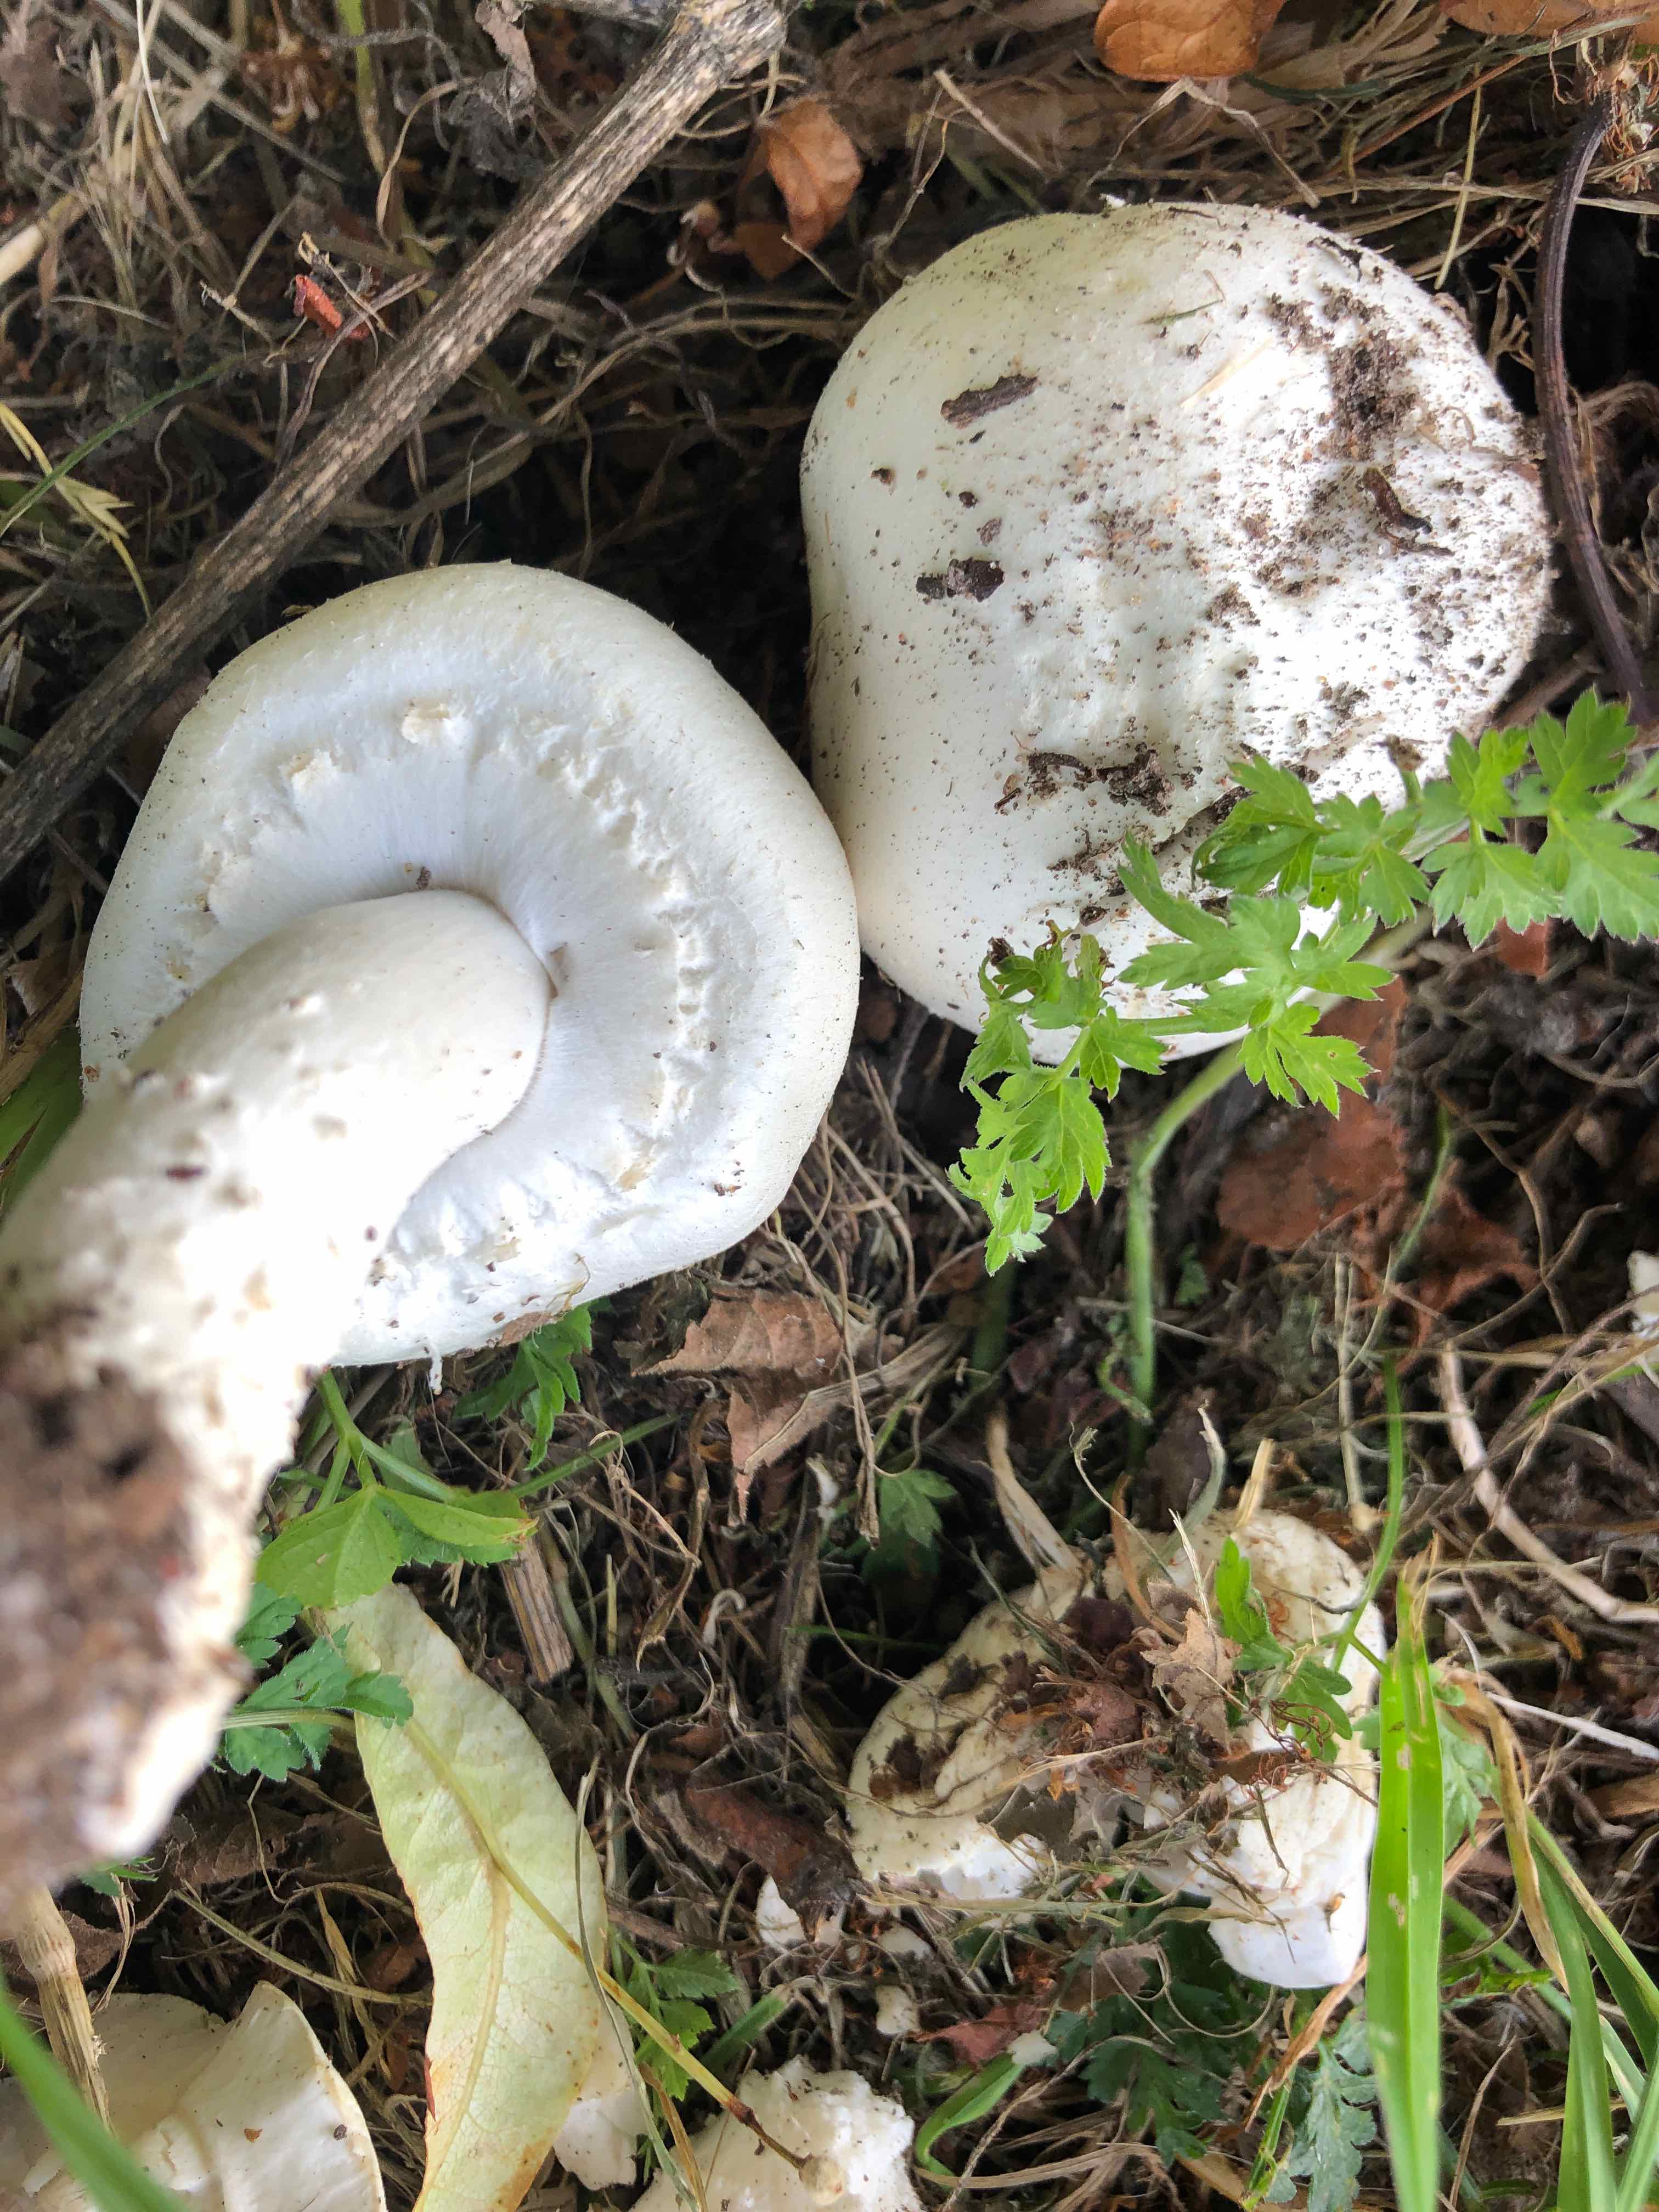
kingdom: Fungi
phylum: Basidiomycota
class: Agaricomycetes
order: Agaricales
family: Agaricaceae
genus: Agaricus
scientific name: Agaricus arvensis
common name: ager-champignon
